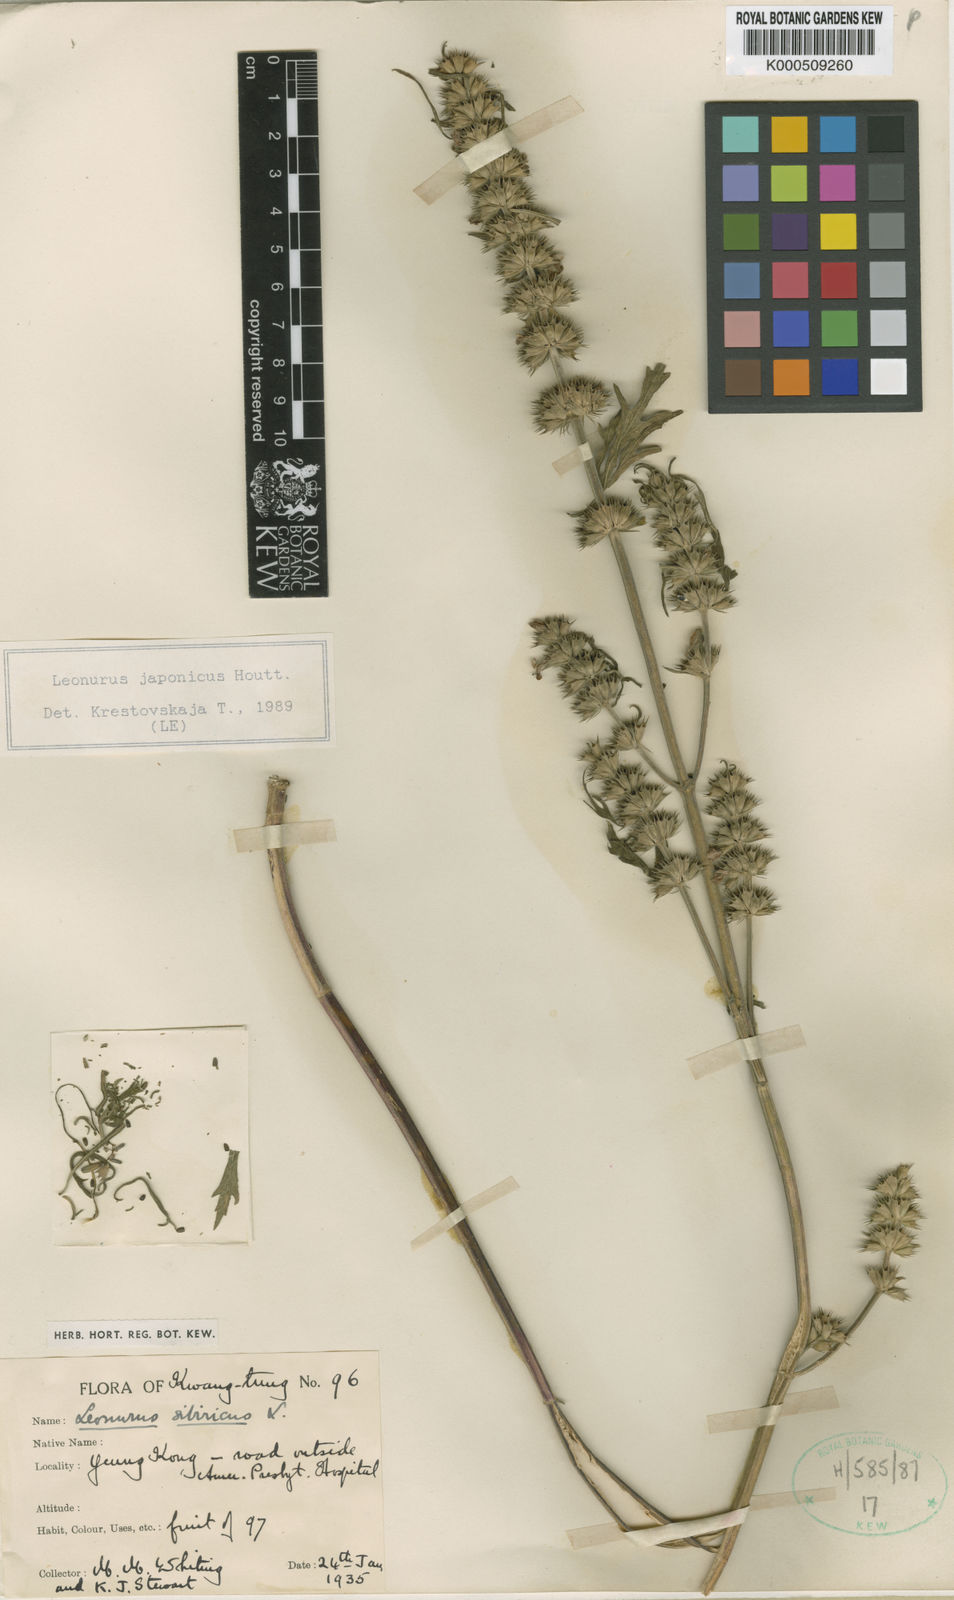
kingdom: Plantae
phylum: Tracheophyta
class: Magnoliopsida
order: Lamiales
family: Lamiaceae
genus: Leonurus
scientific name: Leonurus japonicus
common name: Honeyweed
